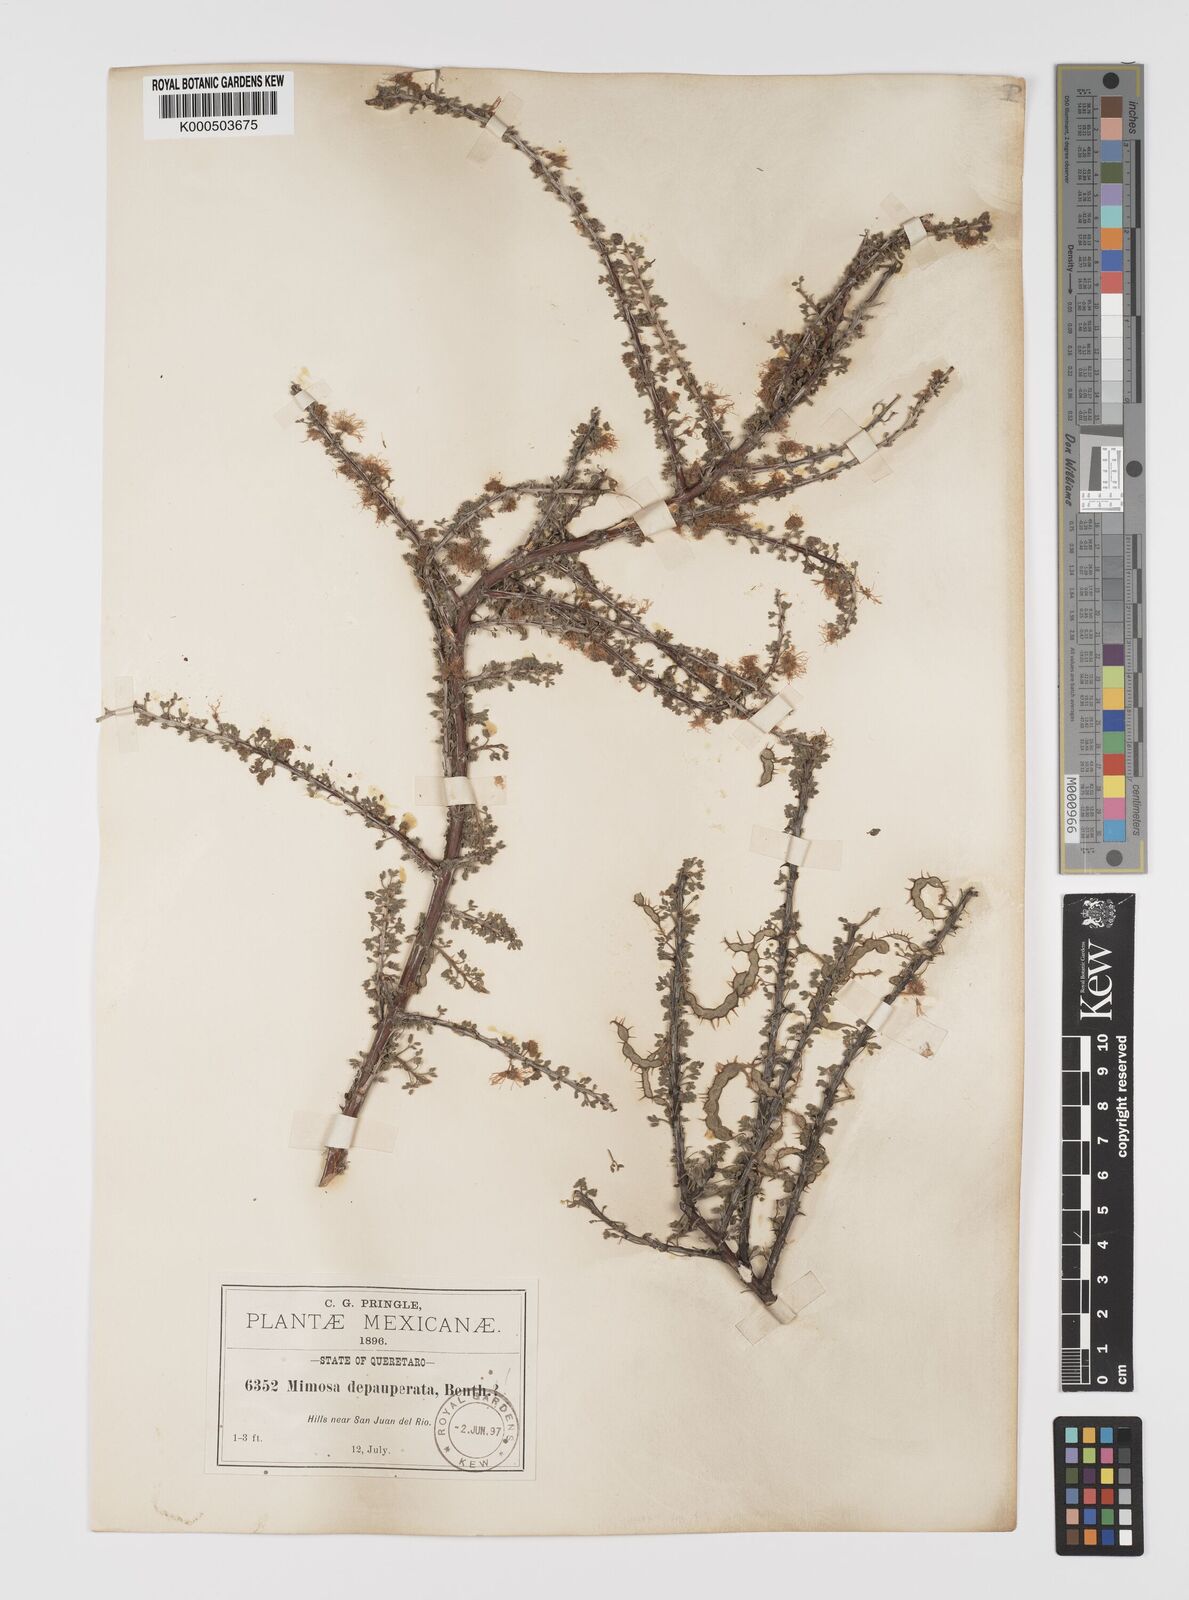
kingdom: Plantae
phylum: Tracheophyta
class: Magnoliopsida
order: Fabales
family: Fabaceae
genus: Mimosa
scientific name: Mimosa depauperata
